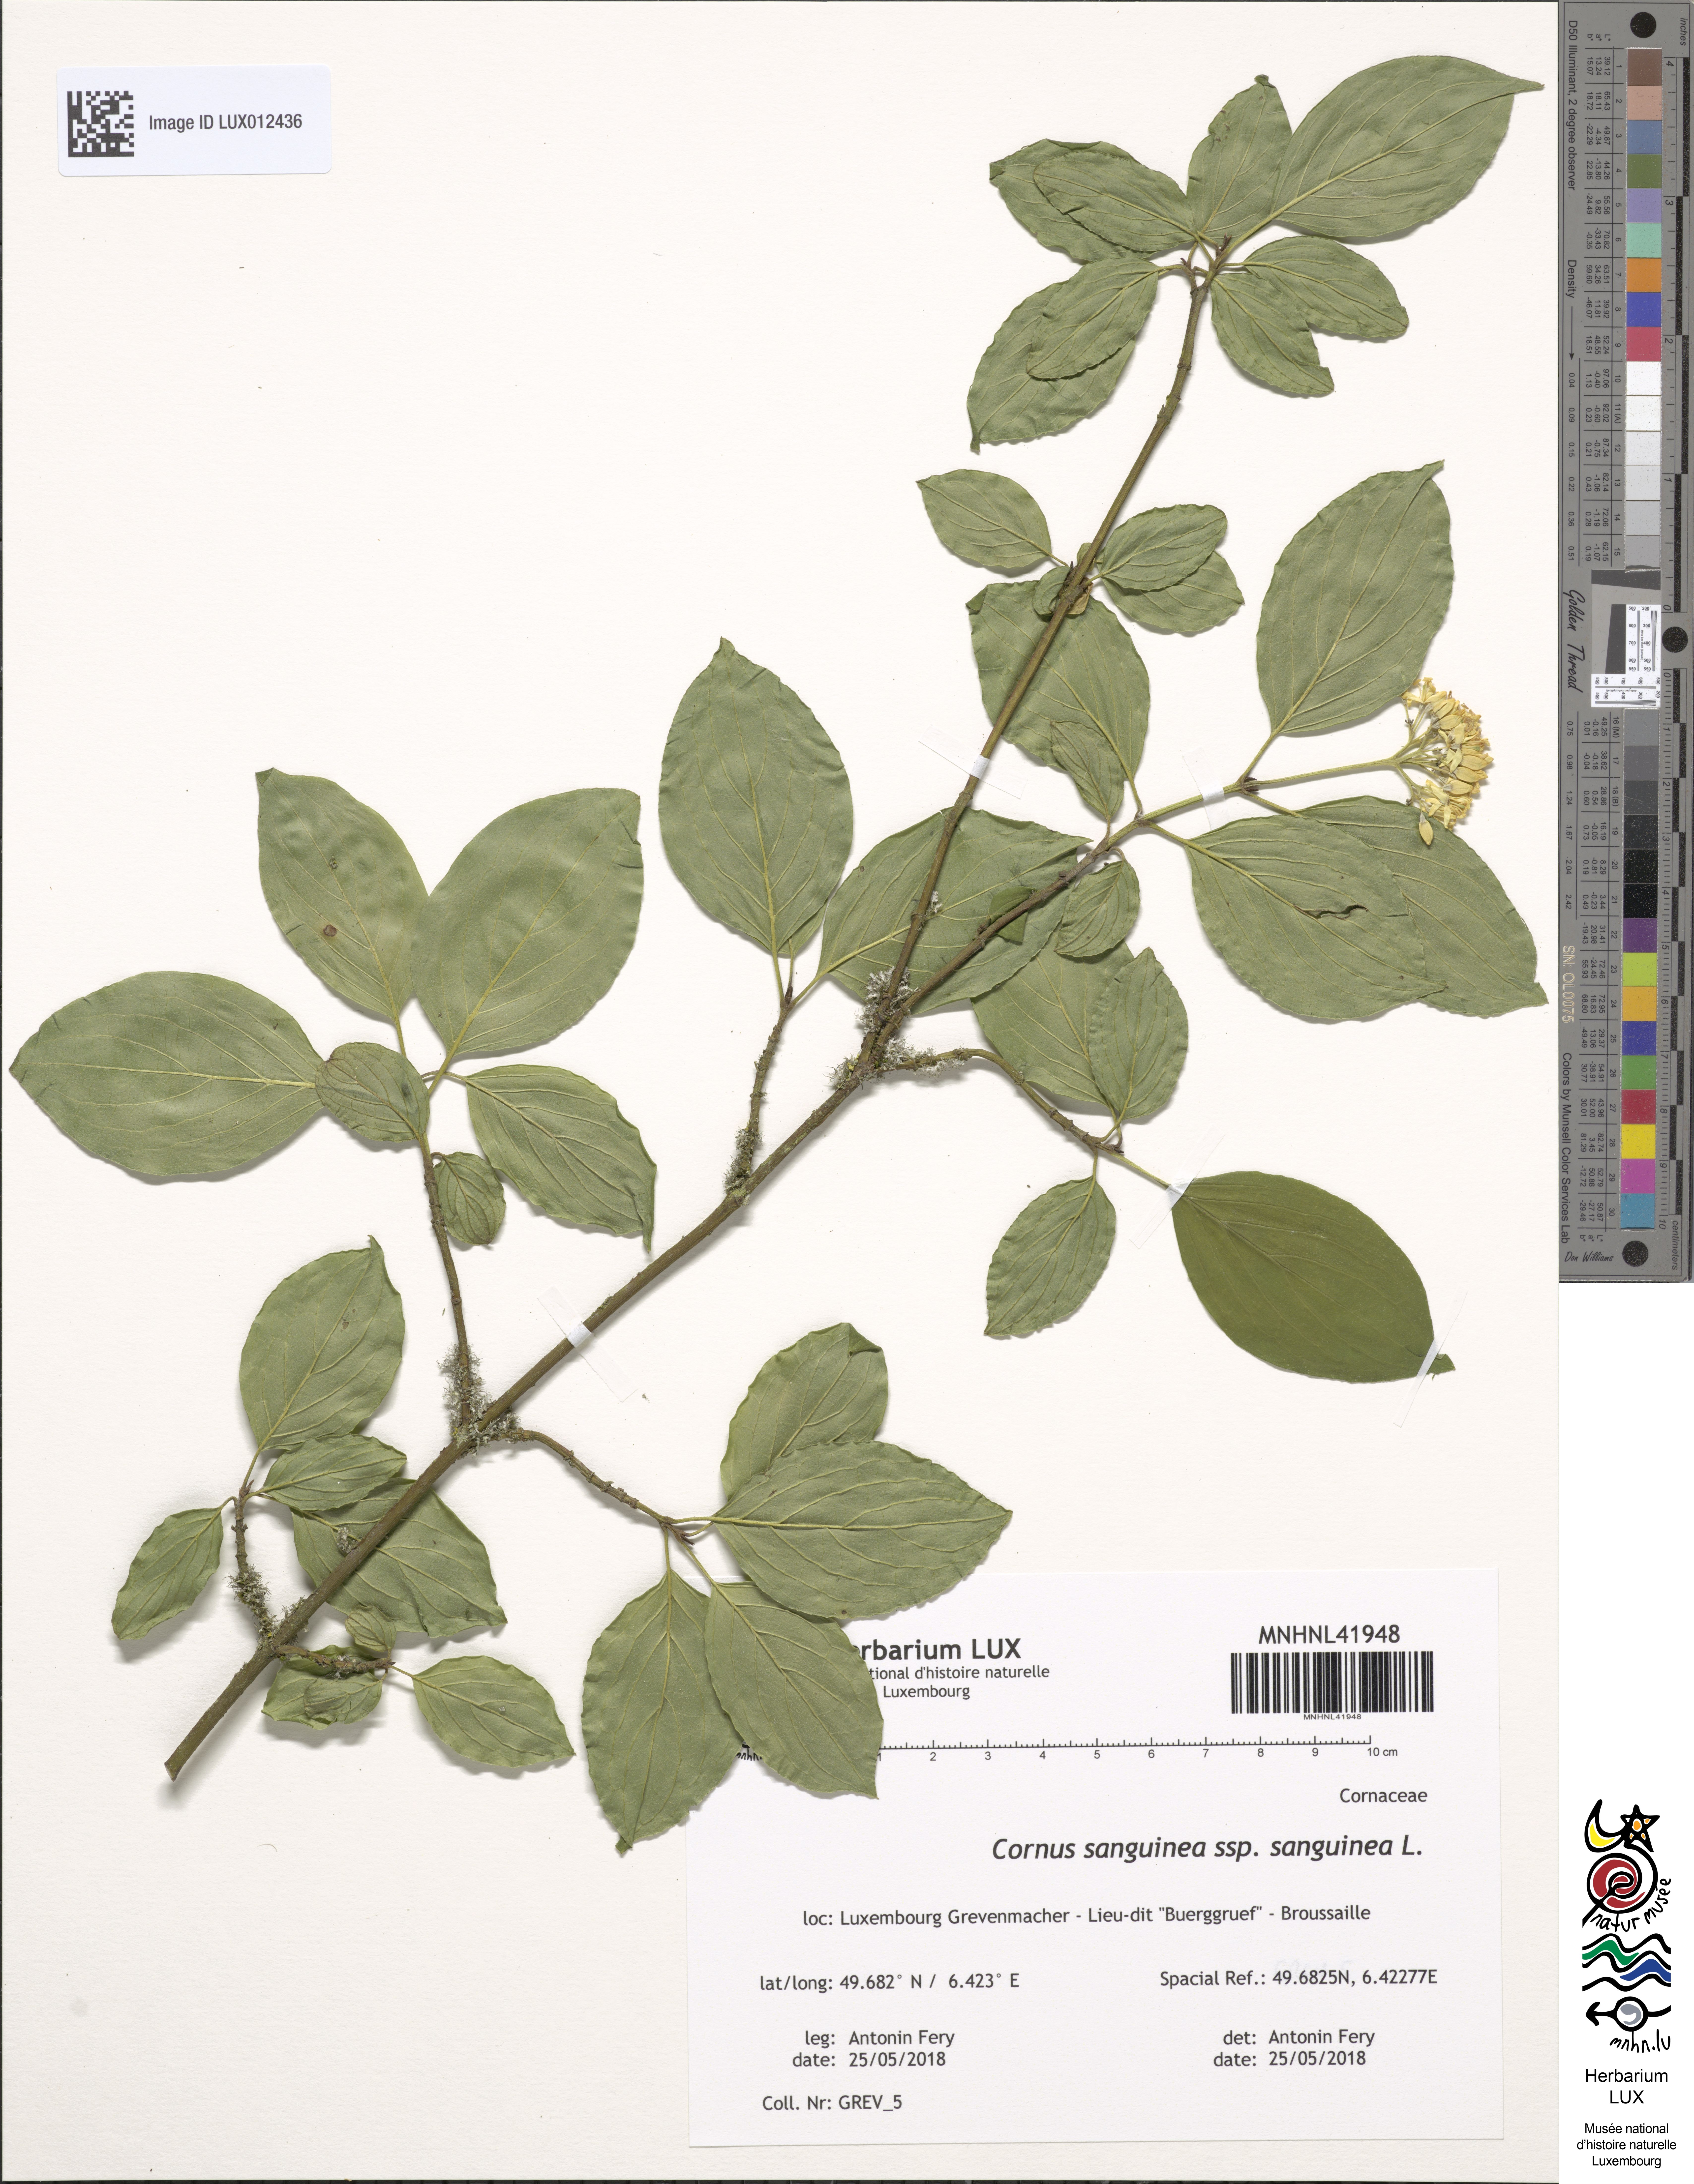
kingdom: Plantae
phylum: Tracheophyta
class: Magnoliopsida
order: Cornales
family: Cornaceae
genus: Cornus
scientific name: Cornus sanguinea
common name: Dogwood
